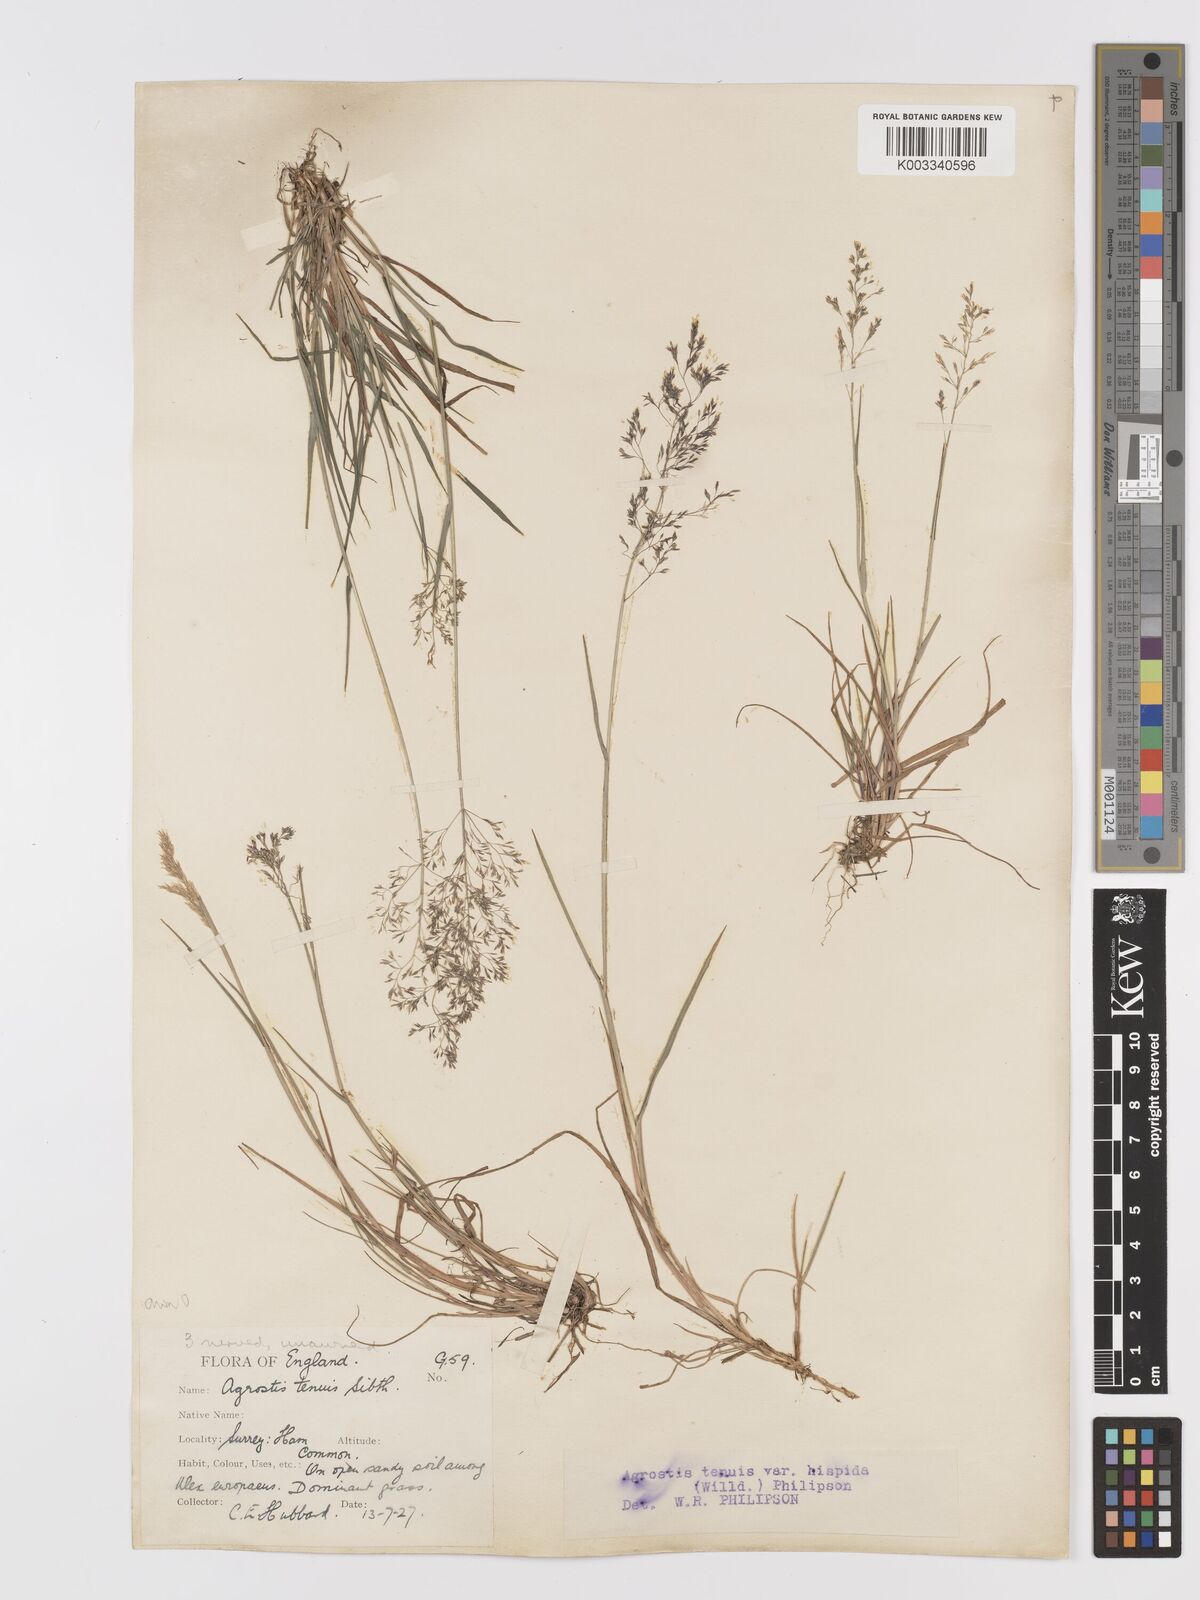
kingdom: Plantae
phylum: Tracheophyta
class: Liliopsida
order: Poales
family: Poaceae
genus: Agrostis
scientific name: Agrostis capillaris
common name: Colonial bentgrass
